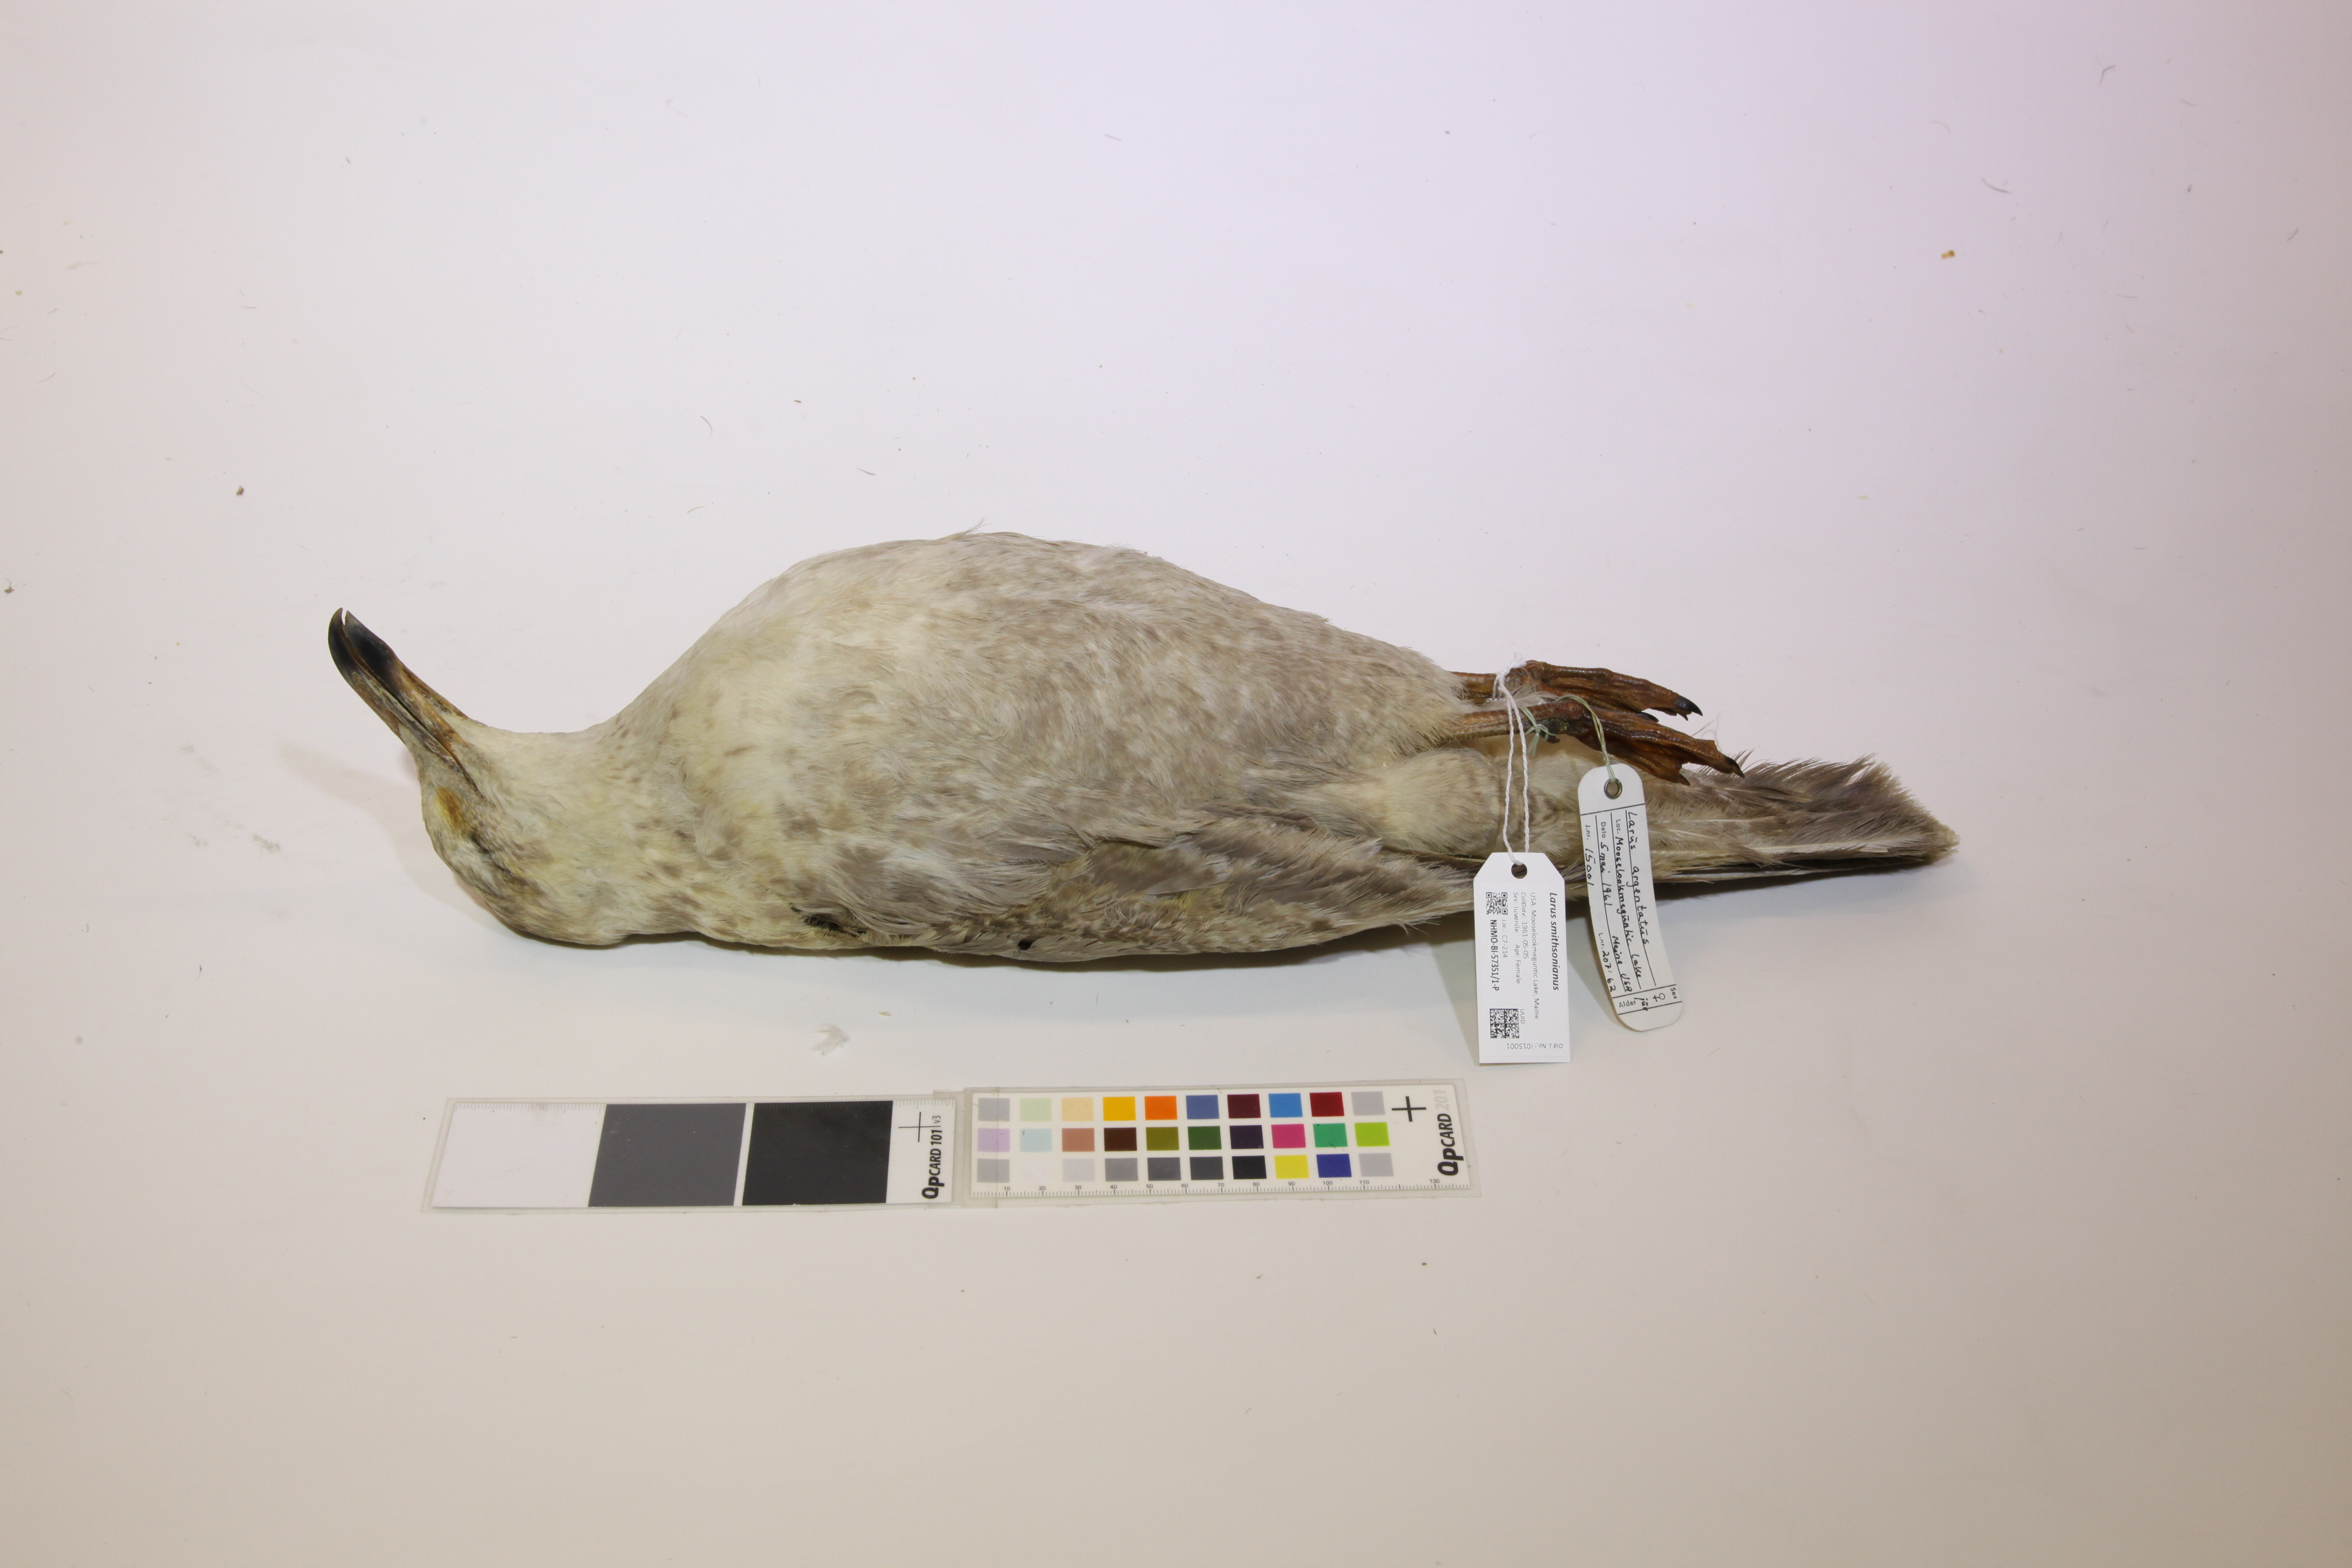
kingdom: Animalia
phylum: Chordata
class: Aves
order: Charadriiformes
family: Laridae
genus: Larus
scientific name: Larus smithsonianus
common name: American herring gull
